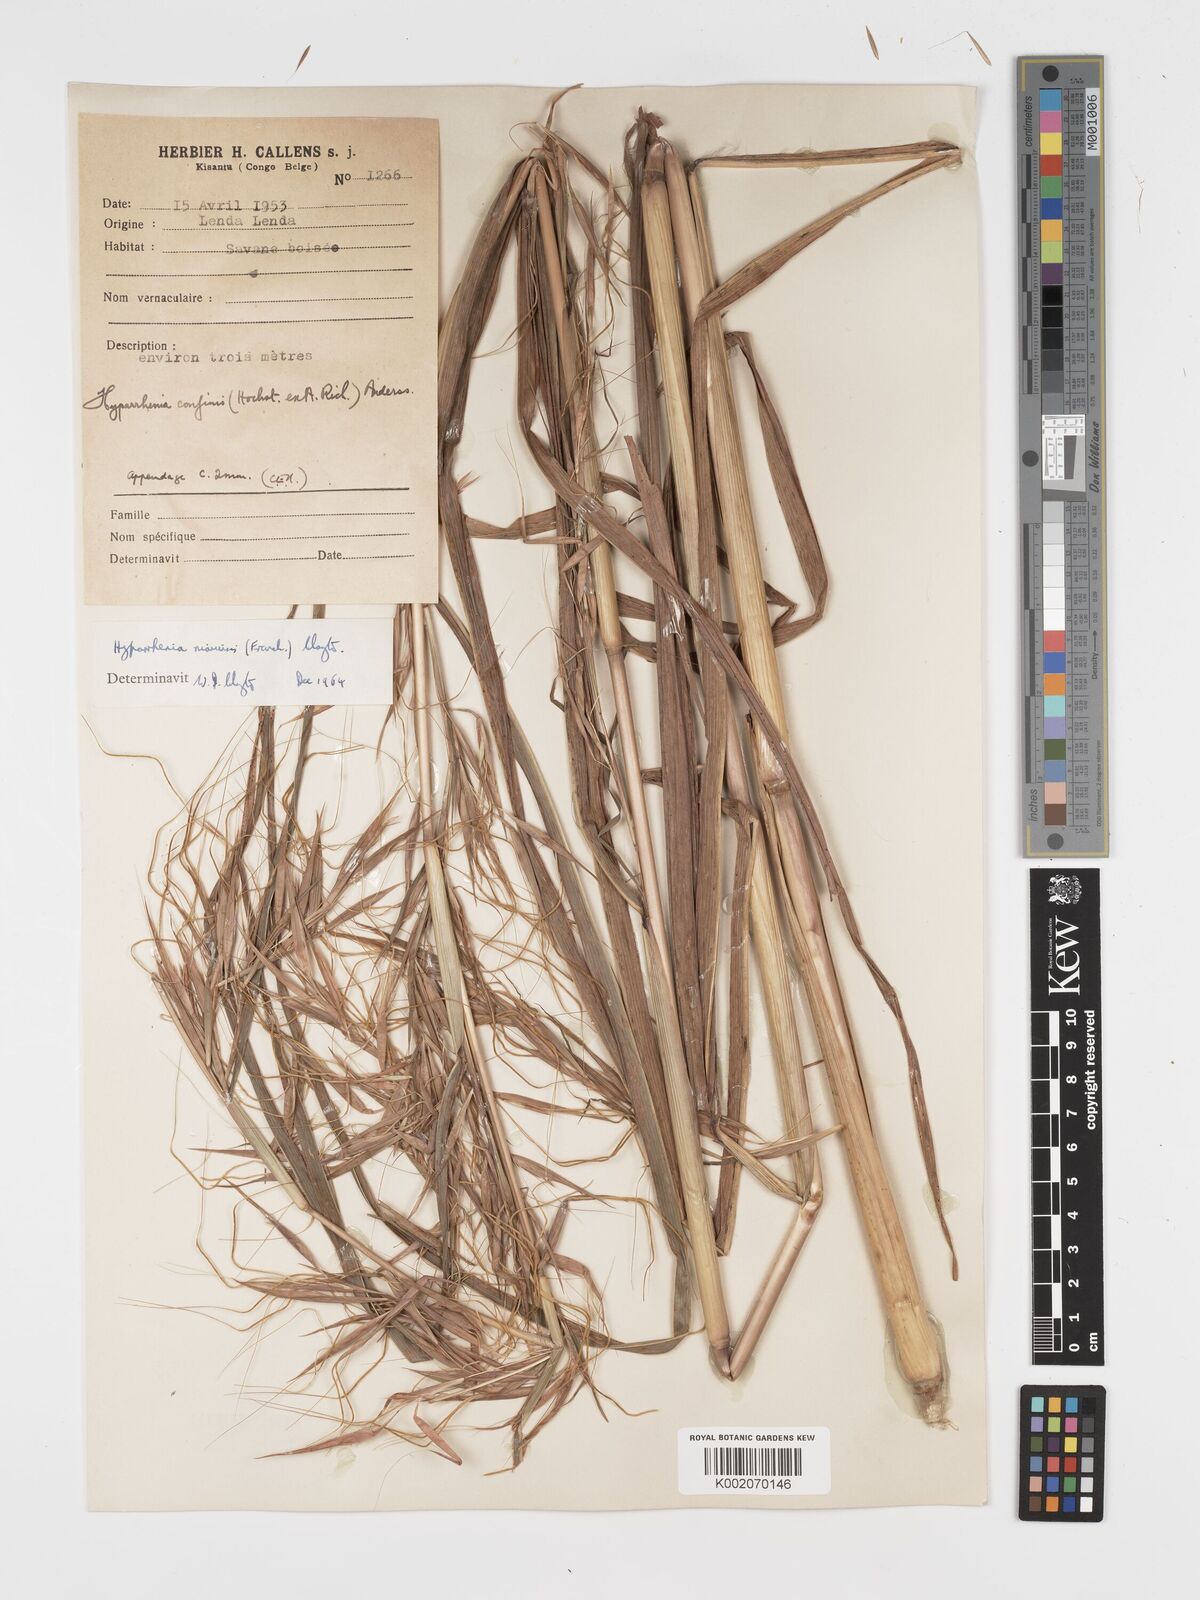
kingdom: Plantae
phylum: Tracheophyta
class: Liliopsida
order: Poales
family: Poaceae
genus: Hyparrhenia
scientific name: Hyparrhenia niariensis
